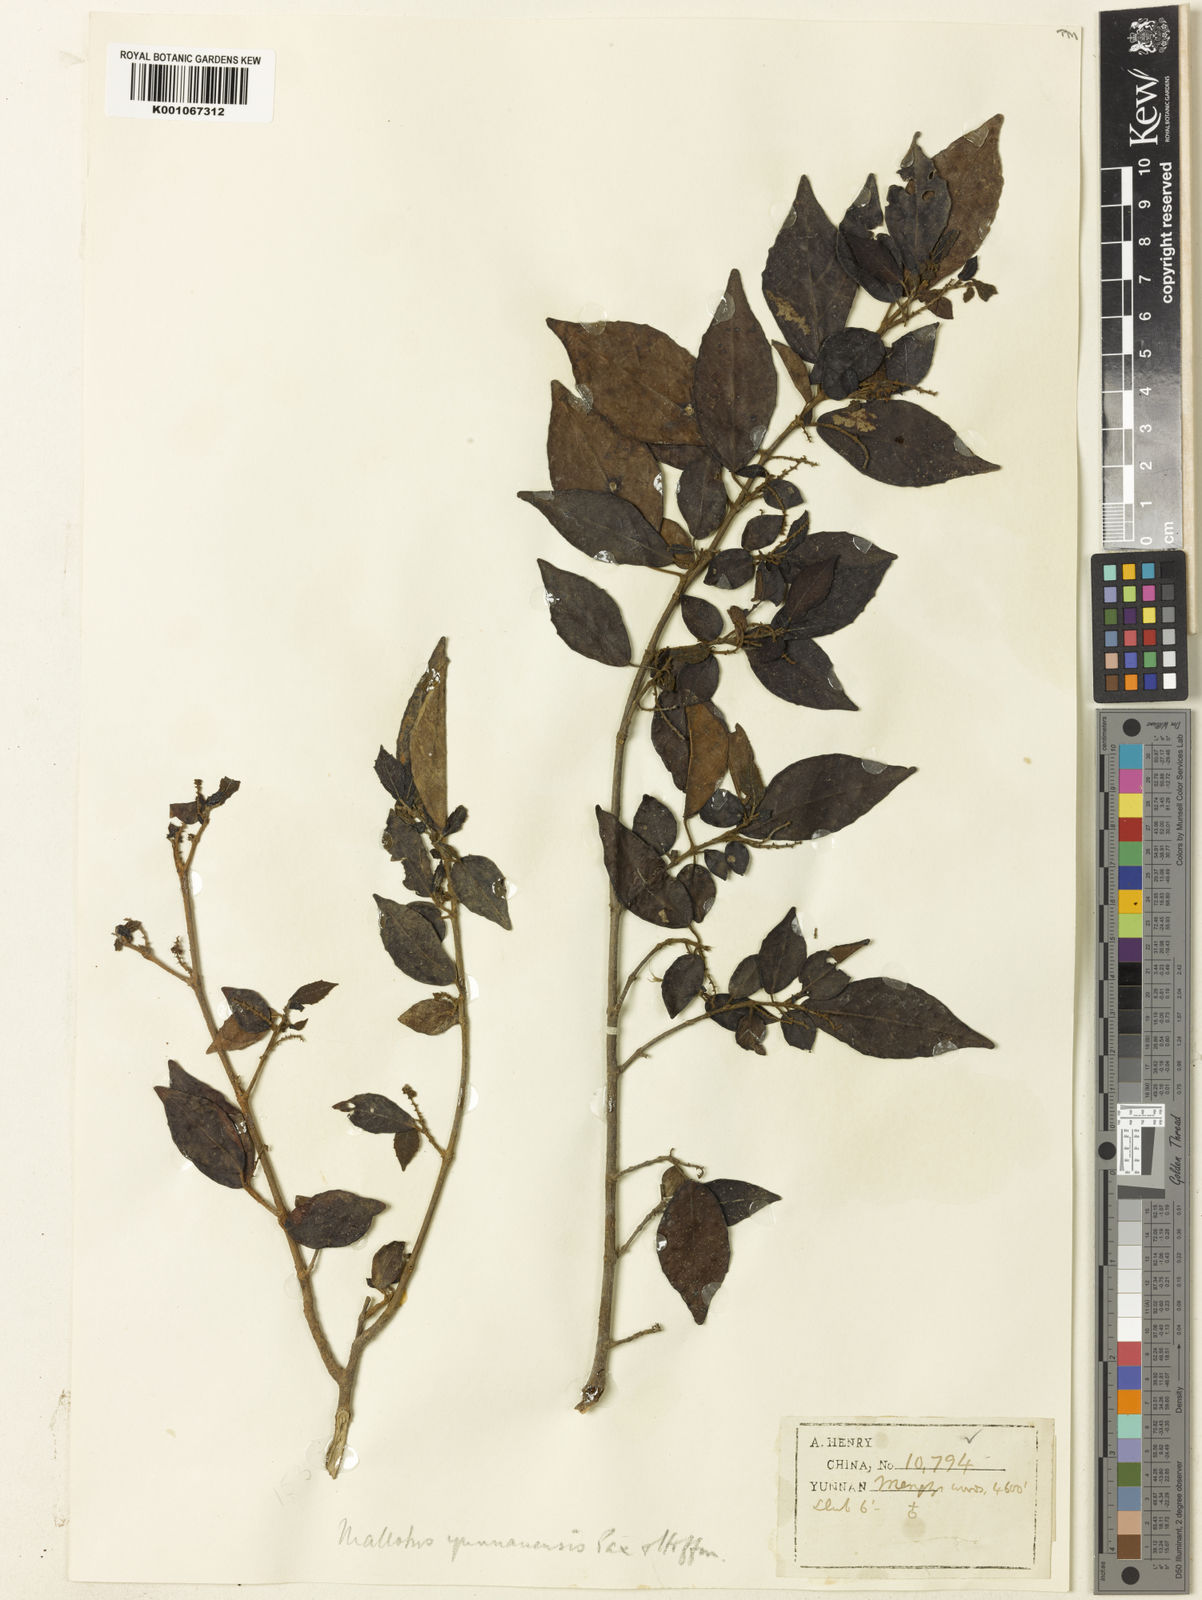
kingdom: Plantae
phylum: Tracheophyta
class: Magnoliopsida
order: Malpighiales
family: Euphorbiaceae
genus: Mallotus
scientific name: Mallotus yunnanensis
